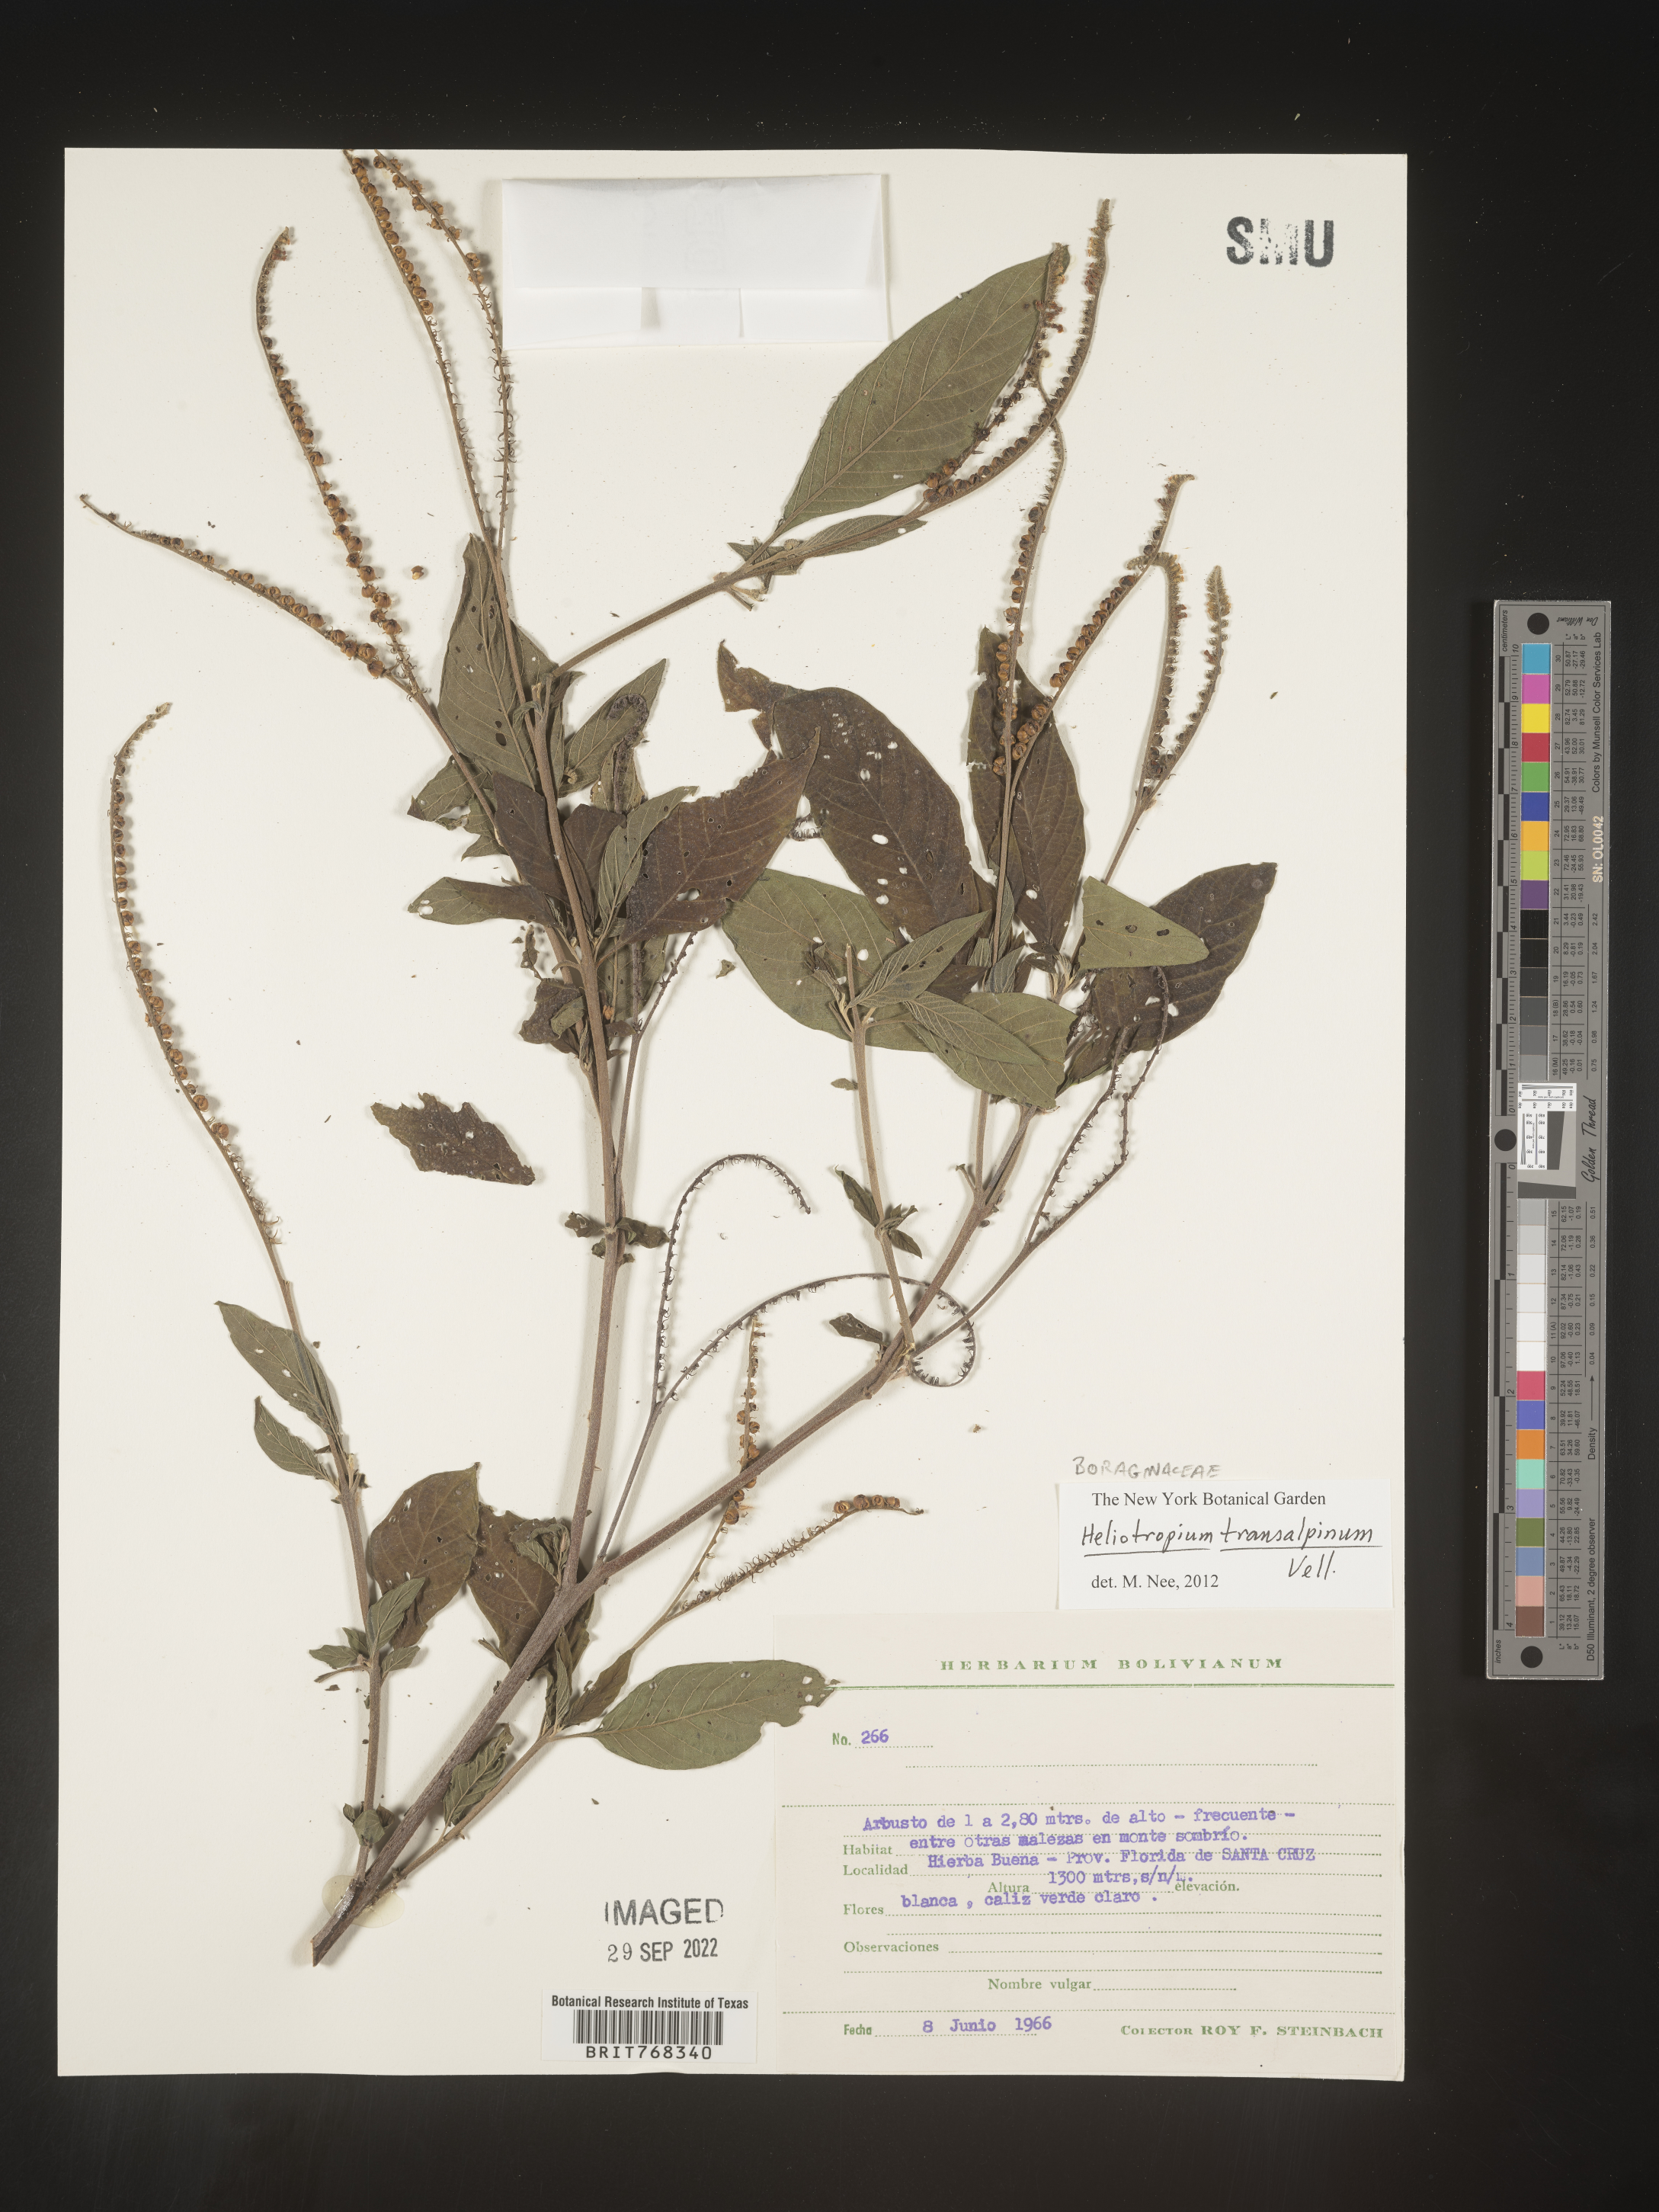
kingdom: Plantae
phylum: Tracheophyta
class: Magnoliopsida
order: Boraginales
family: Heliotropiaceae
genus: Heliotropium
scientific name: Heliotropium
